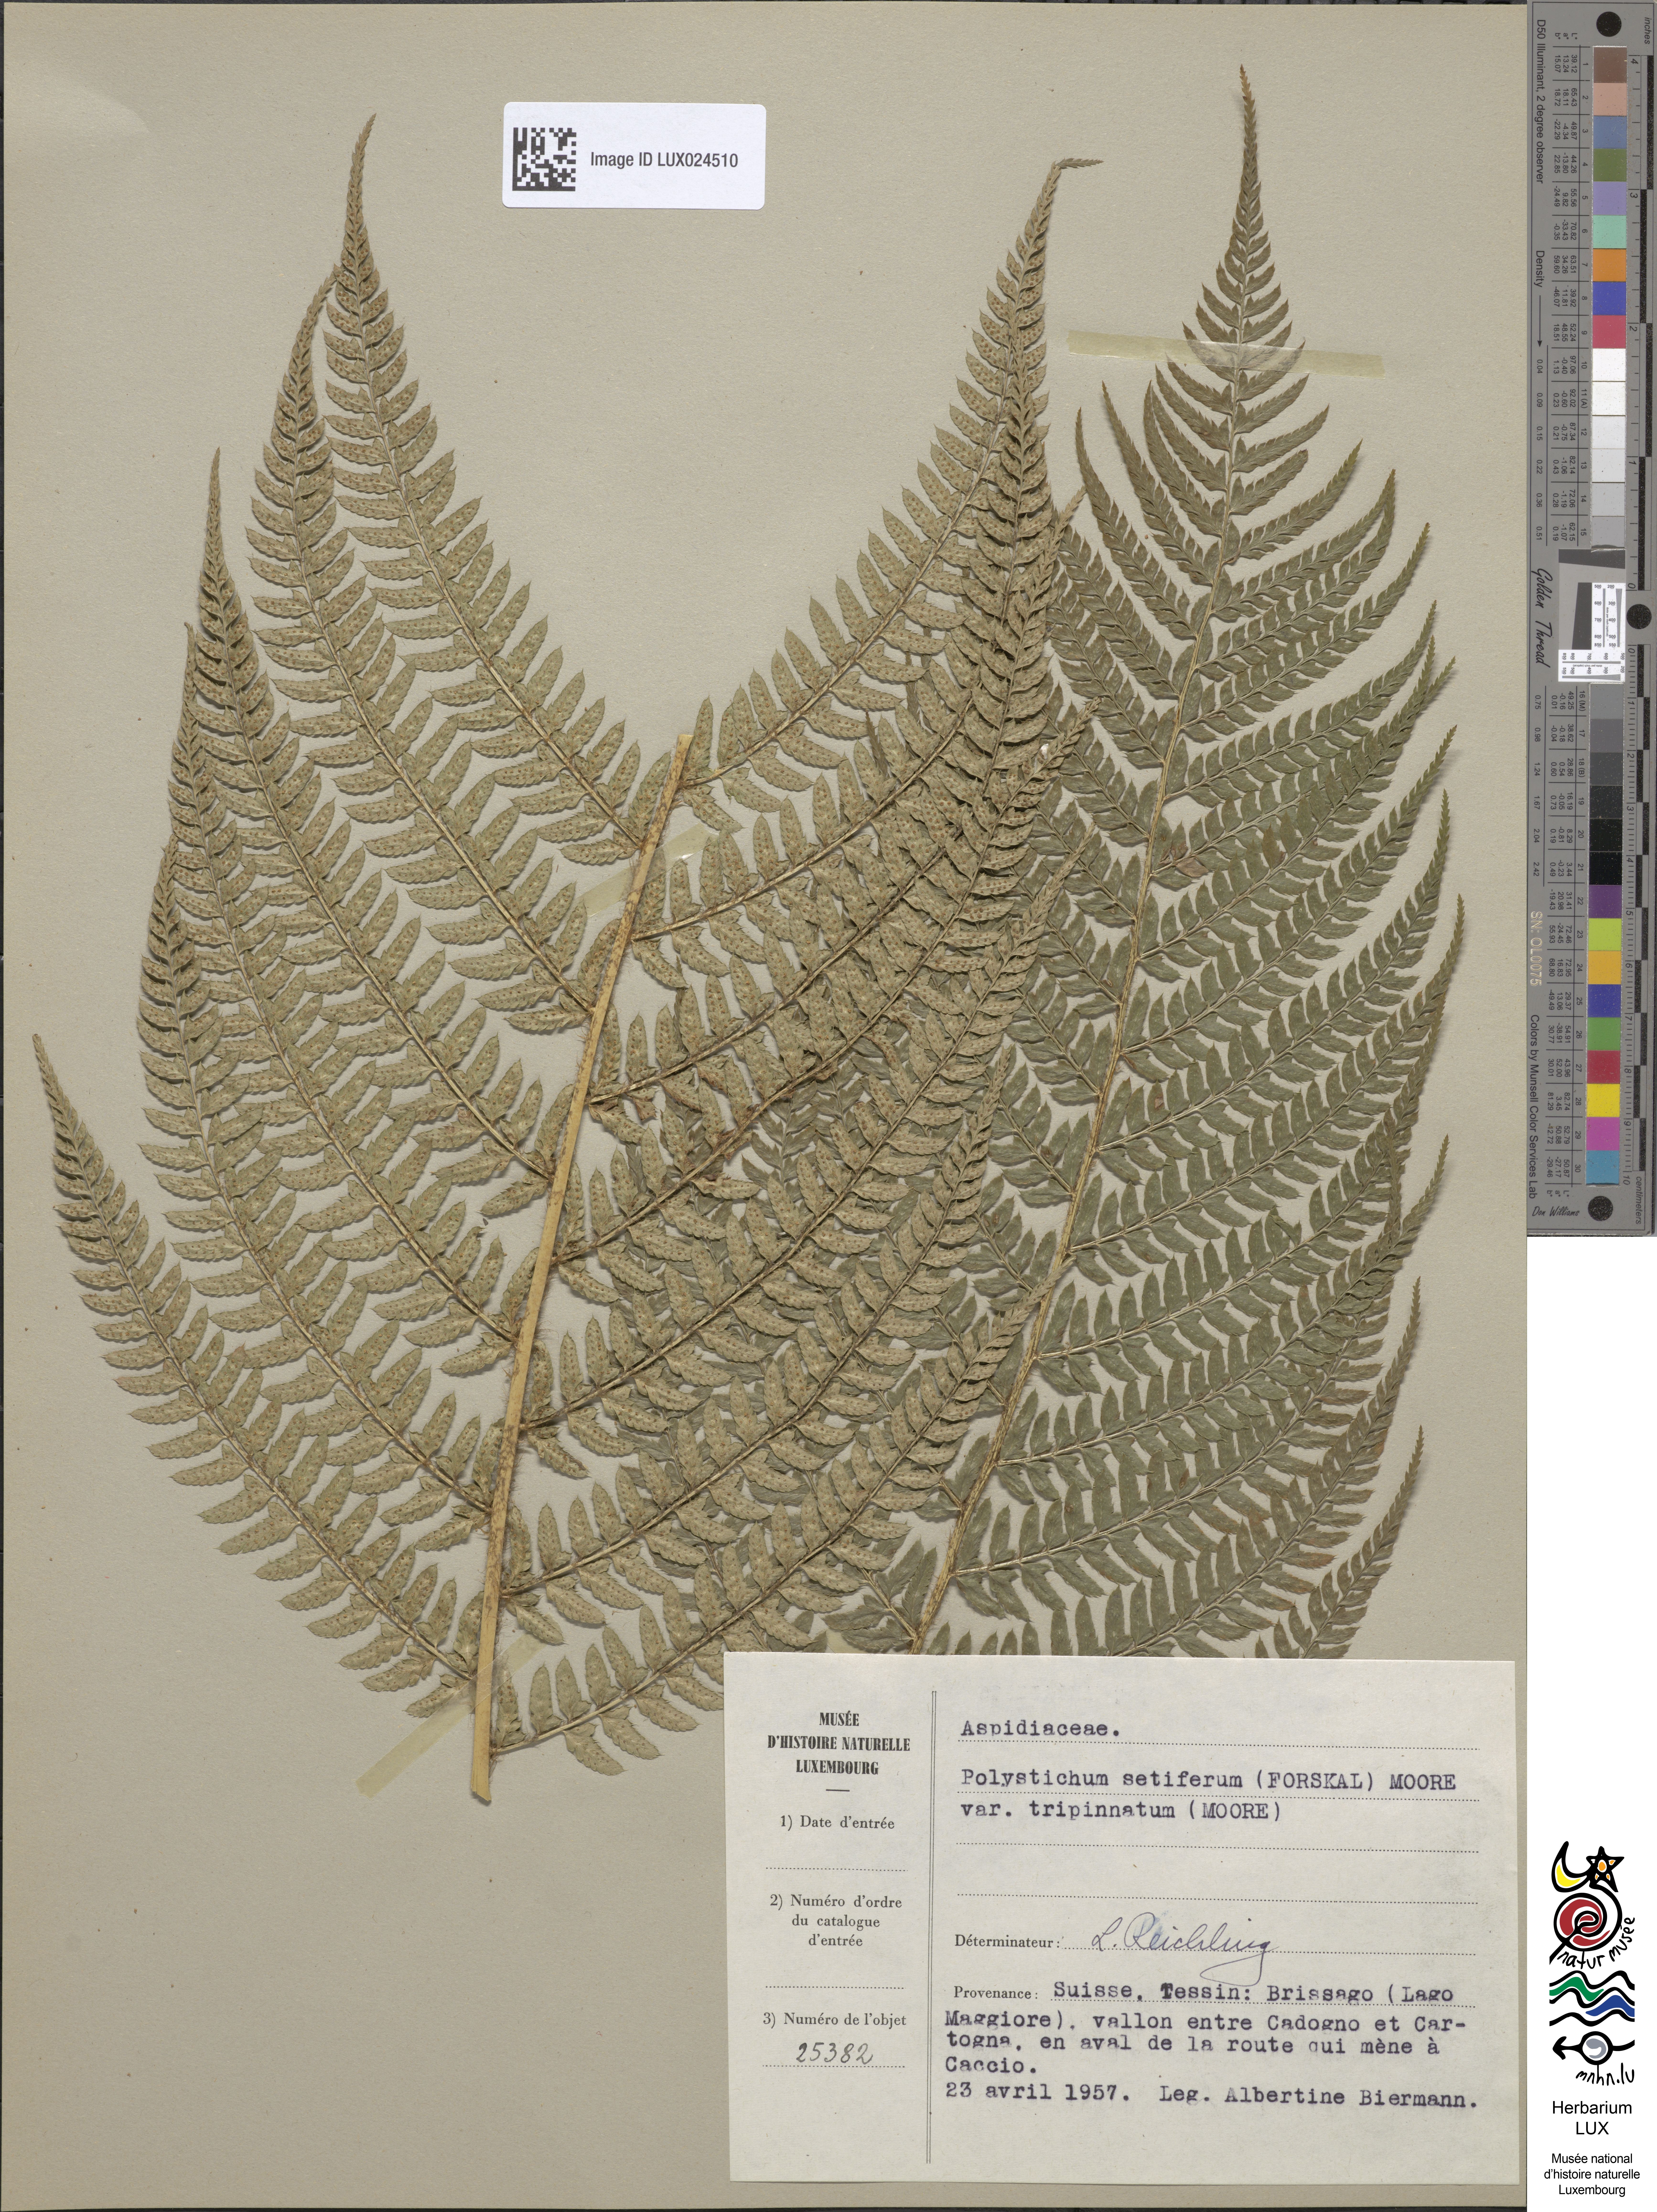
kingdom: Plantae
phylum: Tracheophyta
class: Polypodiopsida
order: Polypodiales
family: Dryopteridaceae
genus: Polystichum
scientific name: Polystichum setiferum
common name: Soft shield-fern
